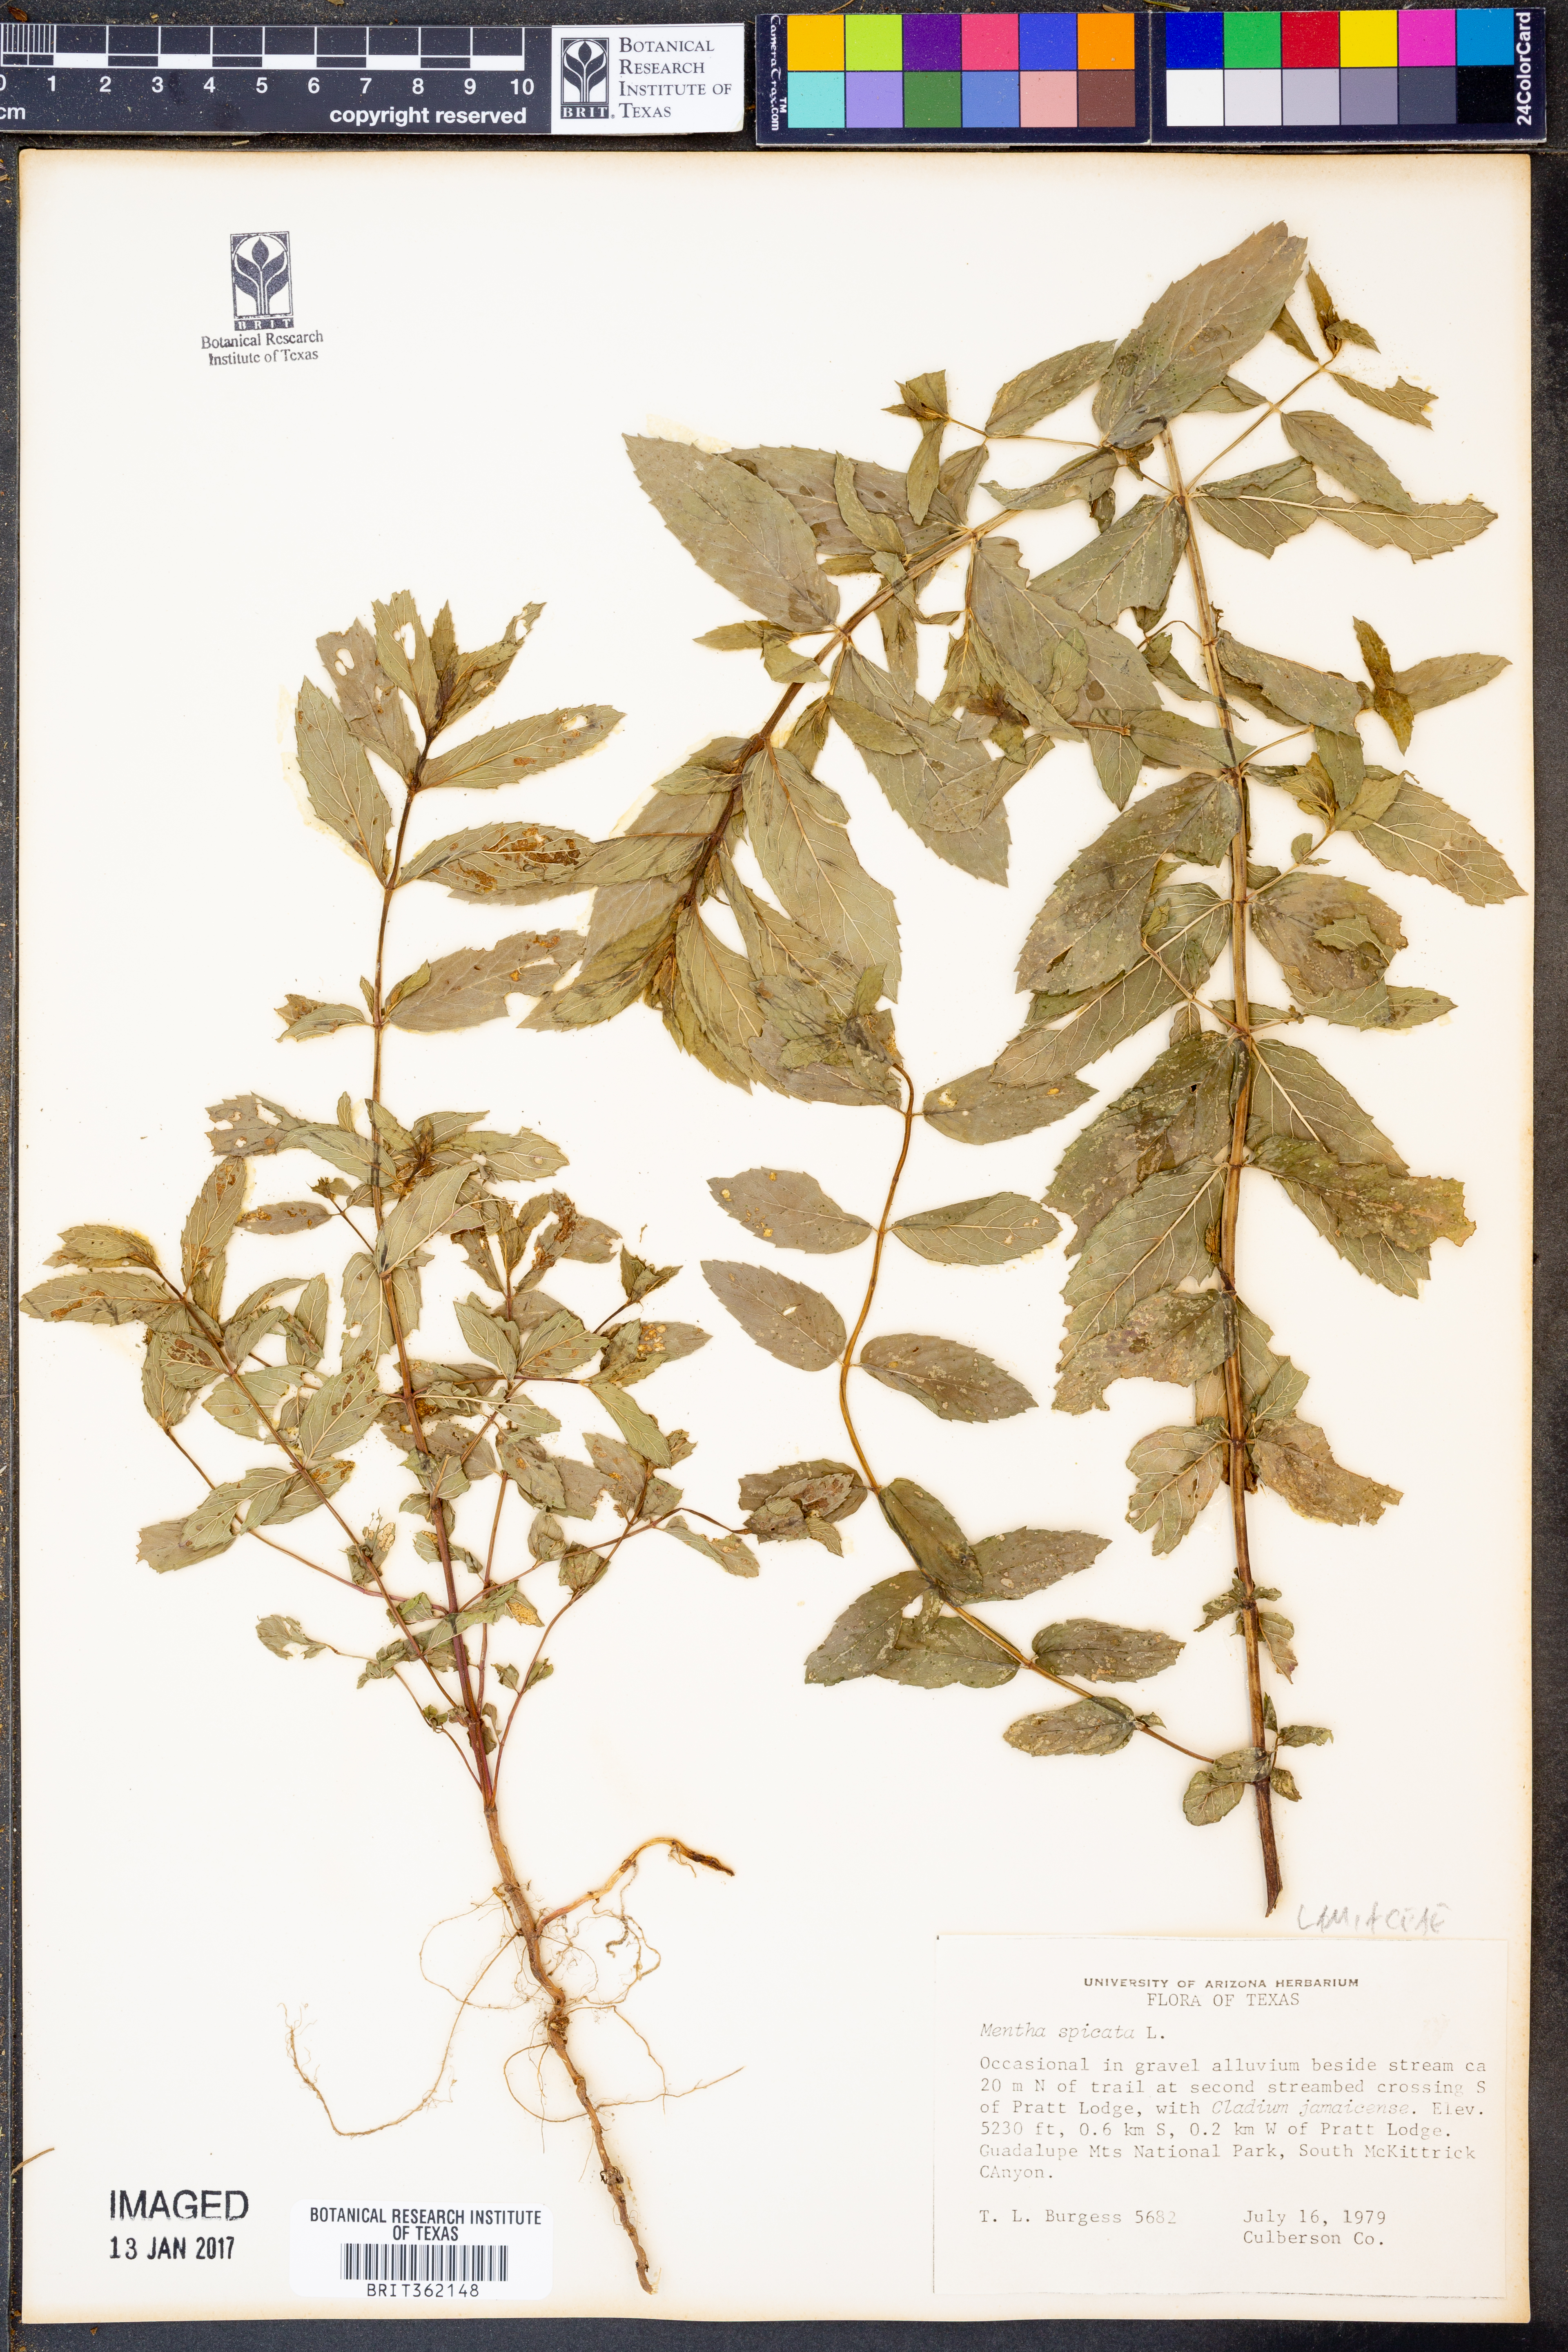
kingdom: Plantae
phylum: Tracheophyta
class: Magnoliopsida
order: Lamiales
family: Lamiaceae
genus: Mentha
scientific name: Mentha spicata
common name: Spearmint
